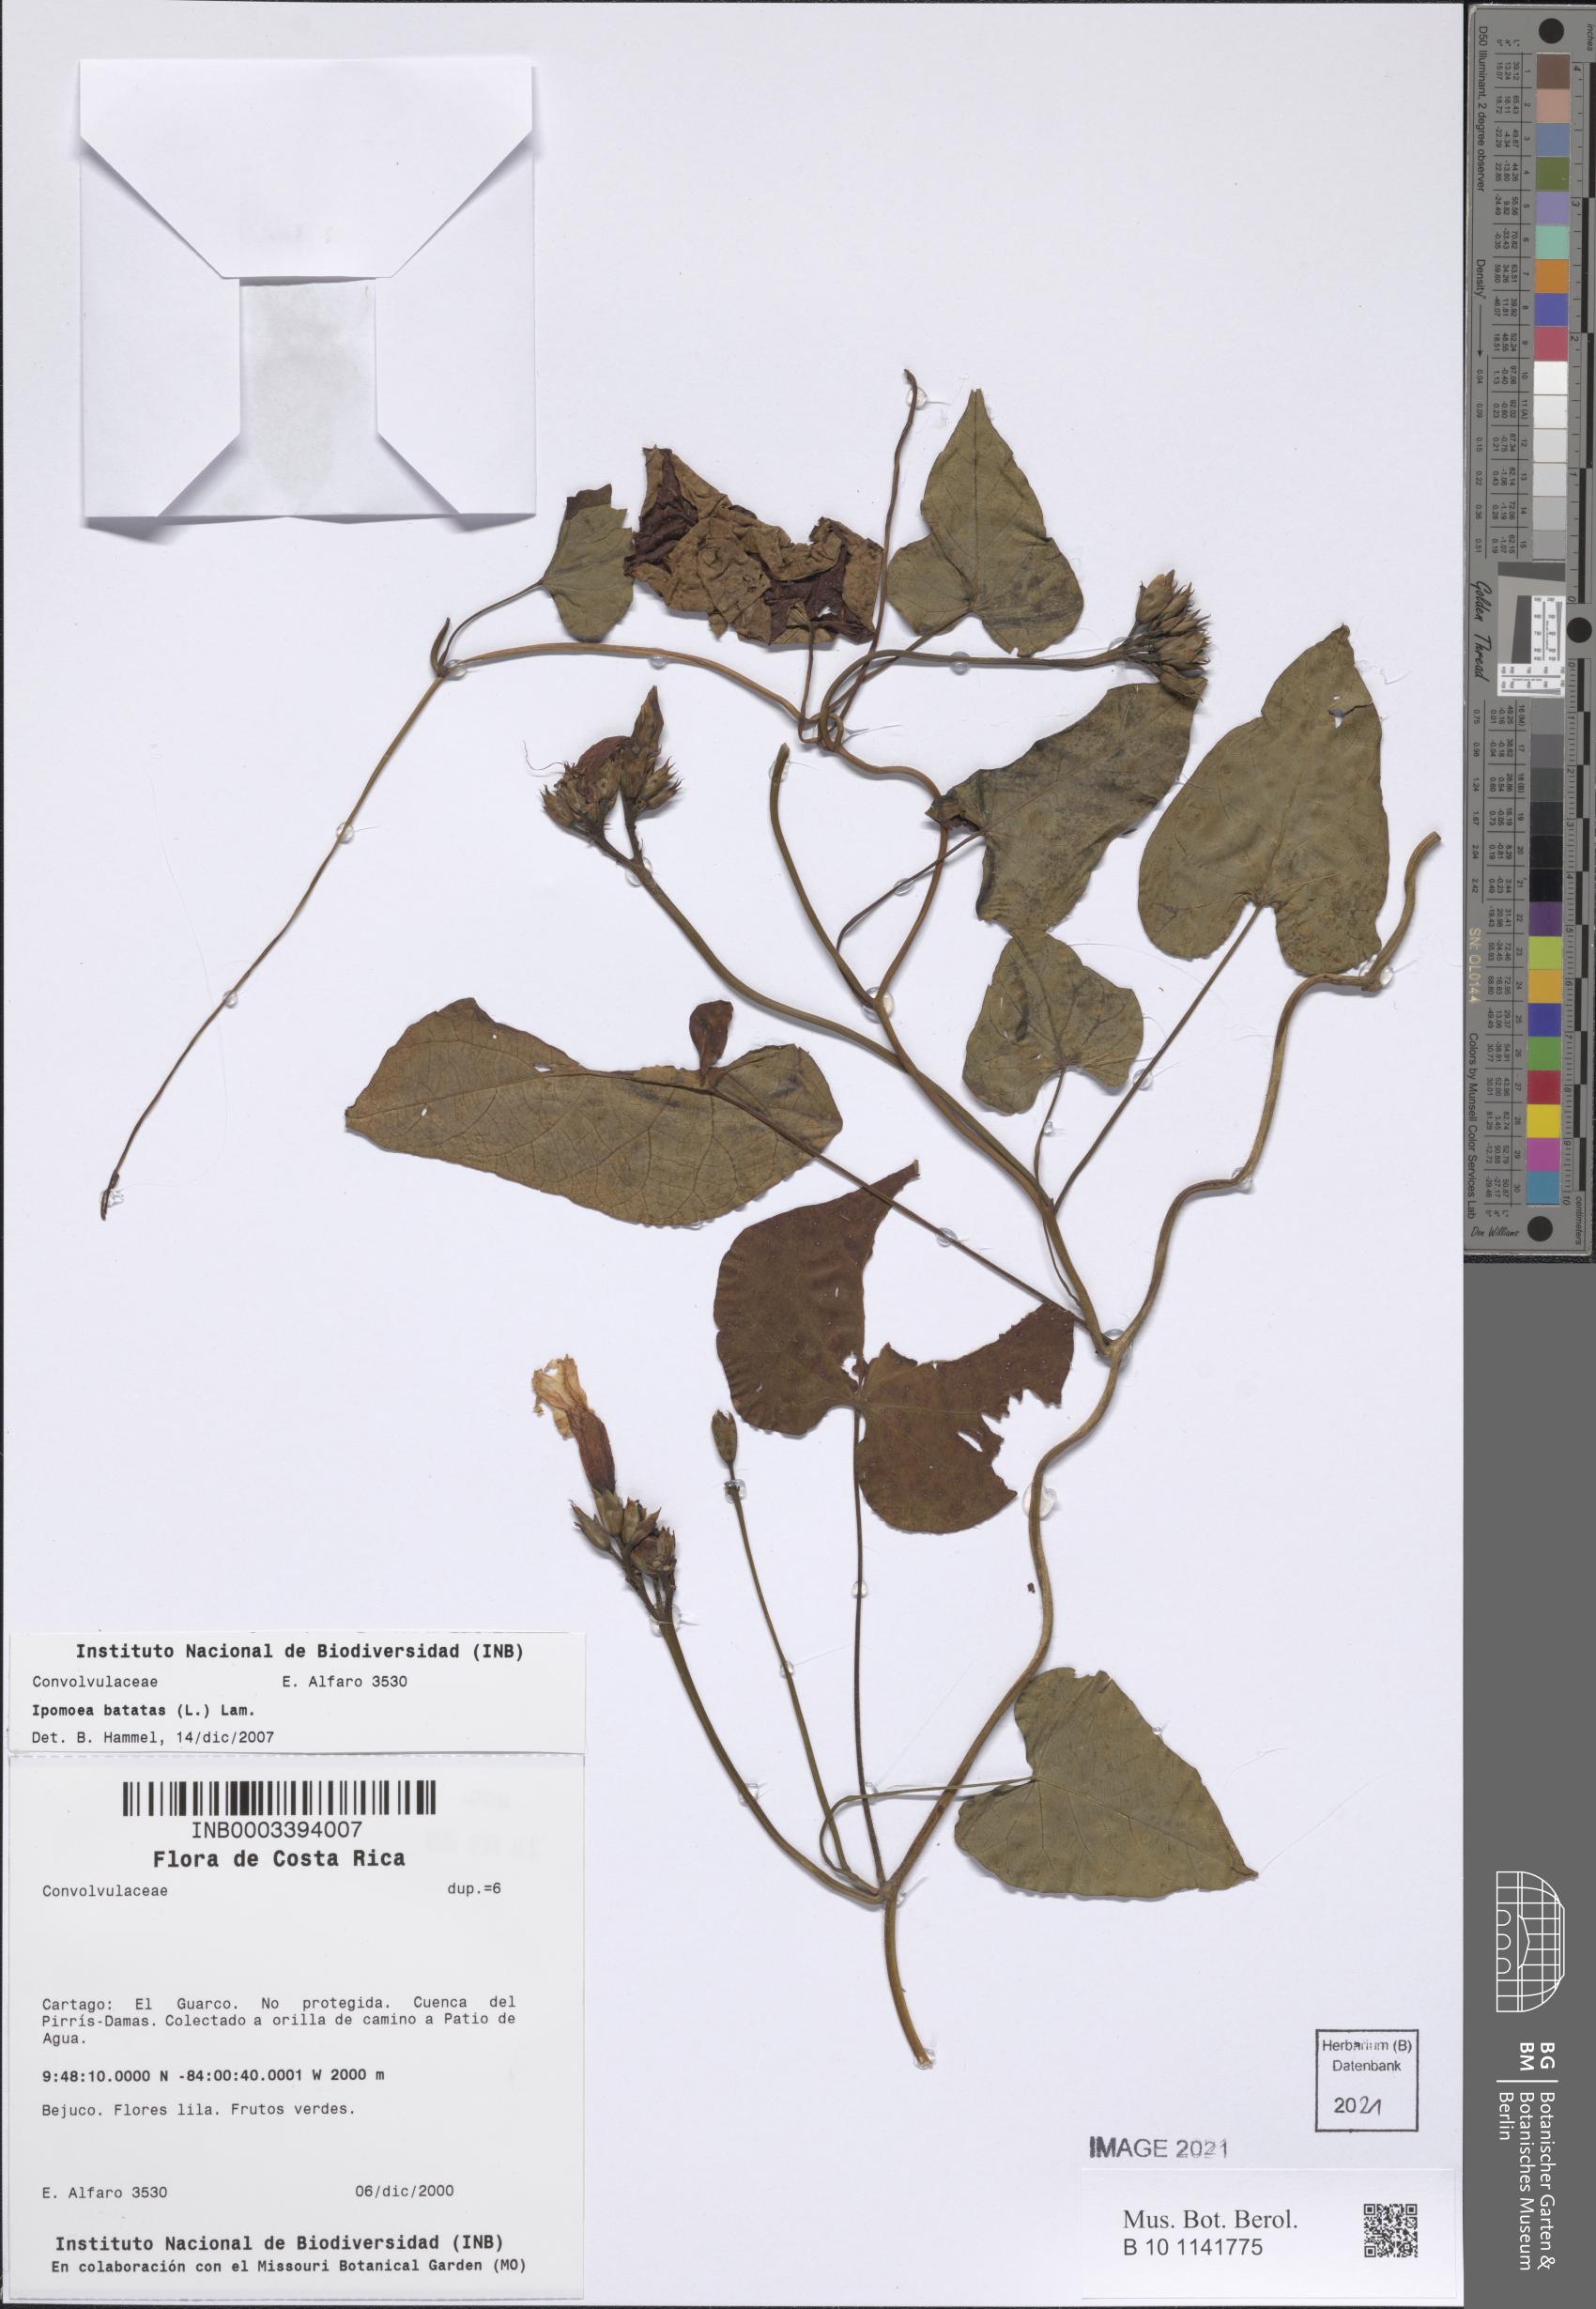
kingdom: Plantae
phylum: Tracheophyta
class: Magnoliopsida
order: Solanales
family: Convolvulaceae
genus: Ipomoea
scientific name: Ipomoea batatas
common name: Sweet-potato
